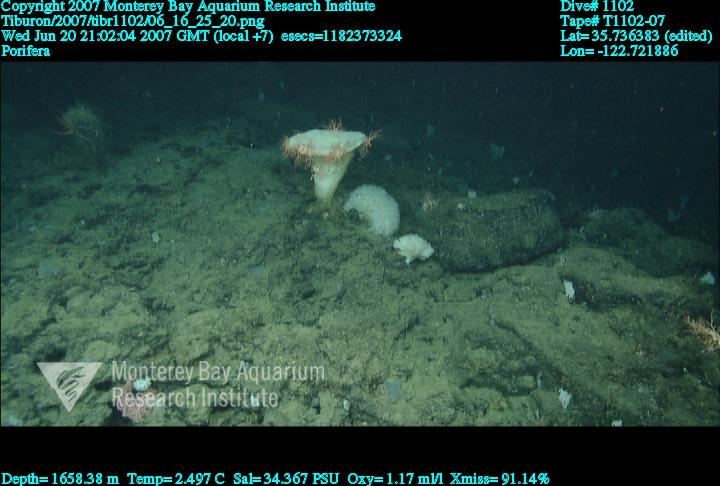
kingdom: Animalia
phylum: Porifera
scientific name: Porifera
